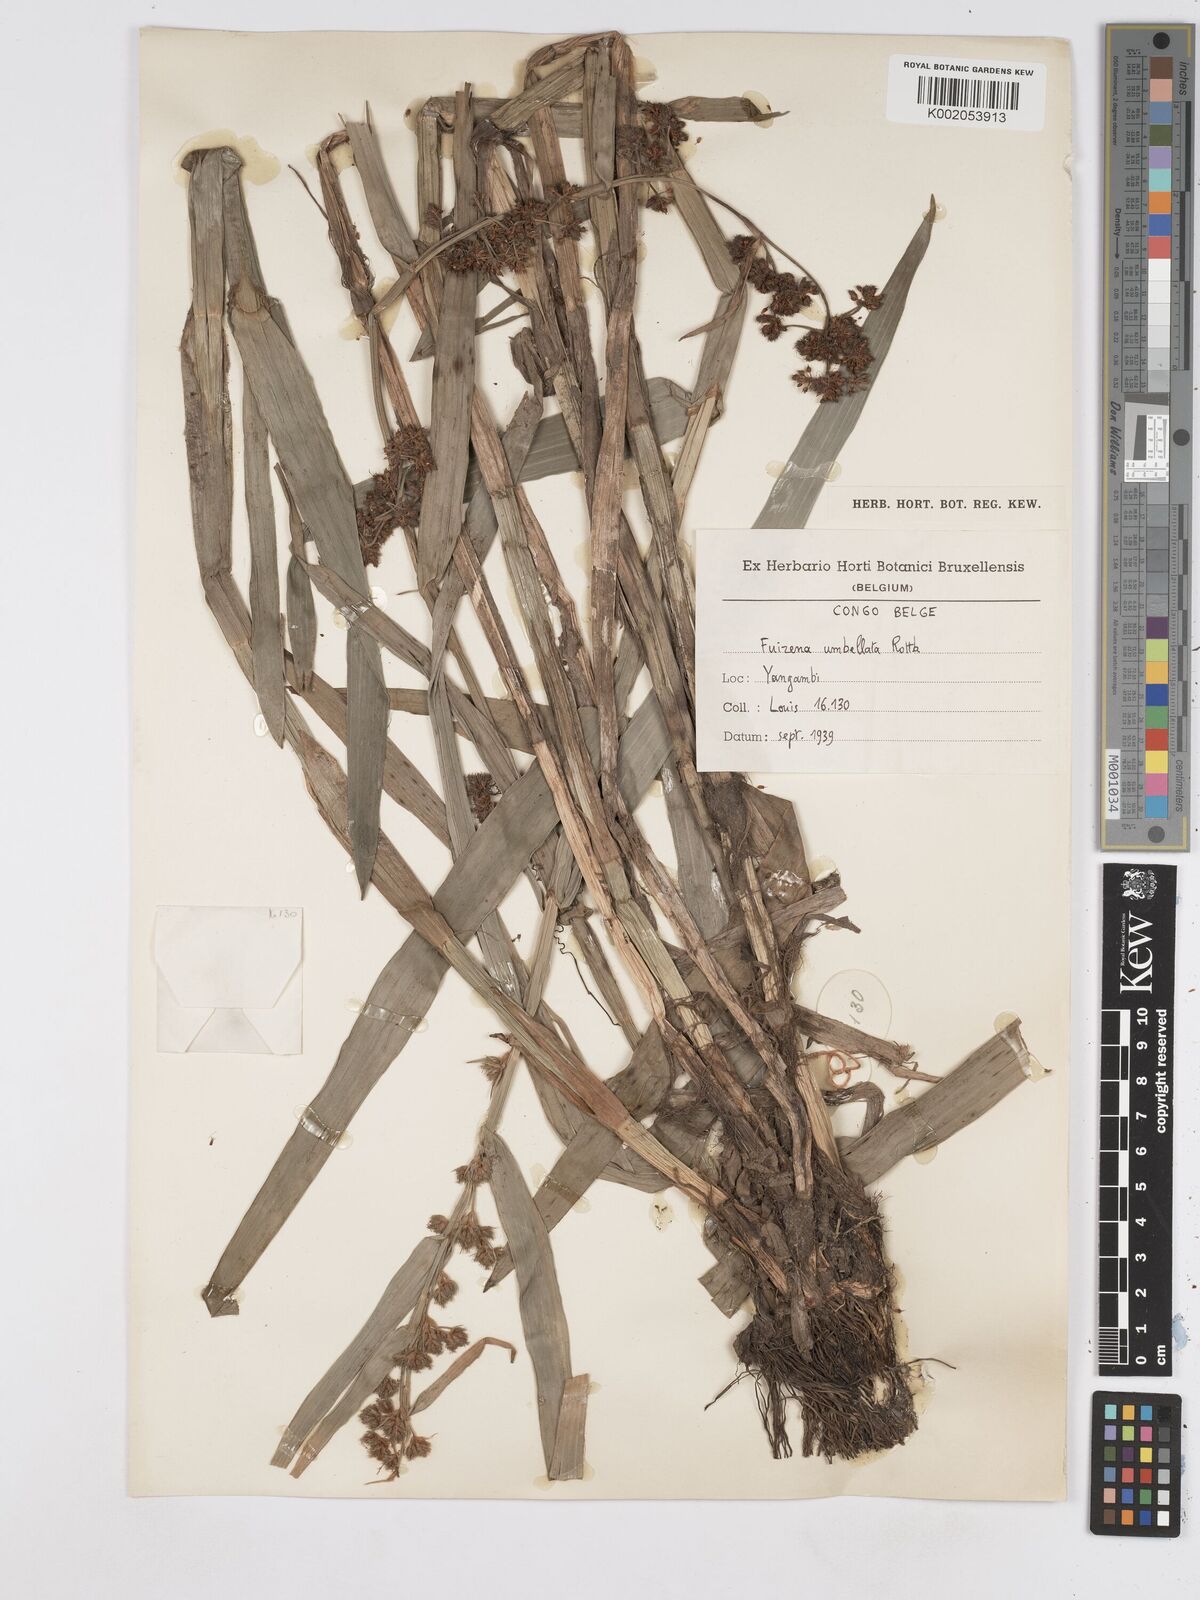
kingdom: Plantae
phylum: Tracheophyta
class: Liliopsida
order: Poales
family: Cyperaceae
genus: Fuirena
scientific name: Fuirena umbellata
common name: Yefen
